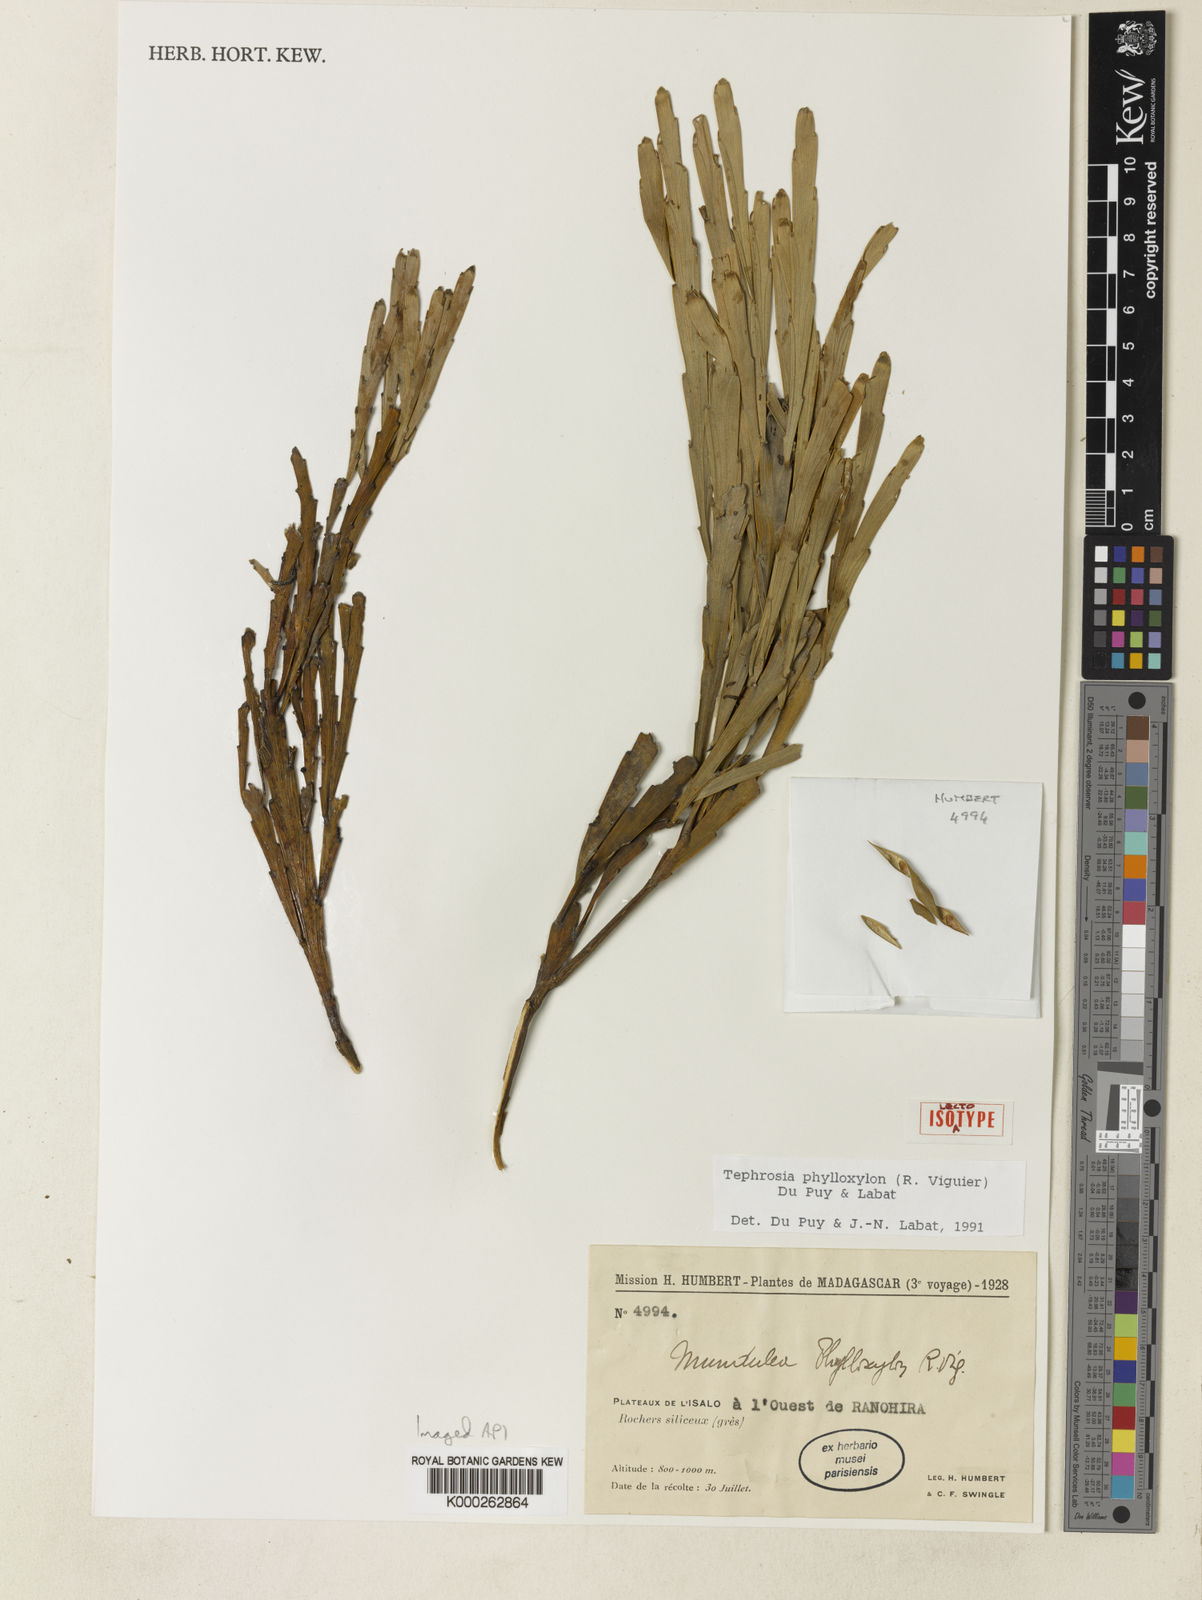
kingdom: Plantae
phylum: Tracheophyta
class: Magnoliopsida
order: Fabales
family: Fabaceae
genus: Tephrosia
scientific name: Tephrosia phylloxylon
